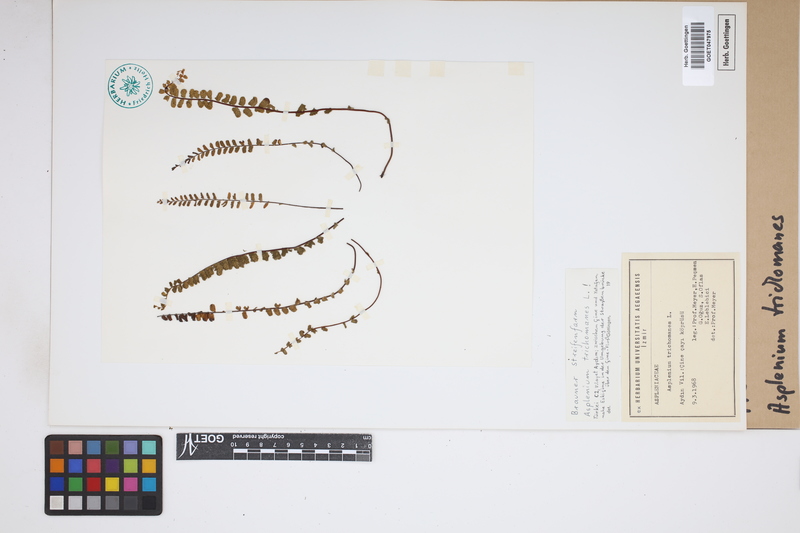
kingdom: Plantae
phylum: Tracheophyta
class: Polypodiopsida
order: Polypodiales
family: Aspleniaceae
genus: Asplenium
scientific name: Asplenium trichomanes
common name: Maidenhair spleenwort
